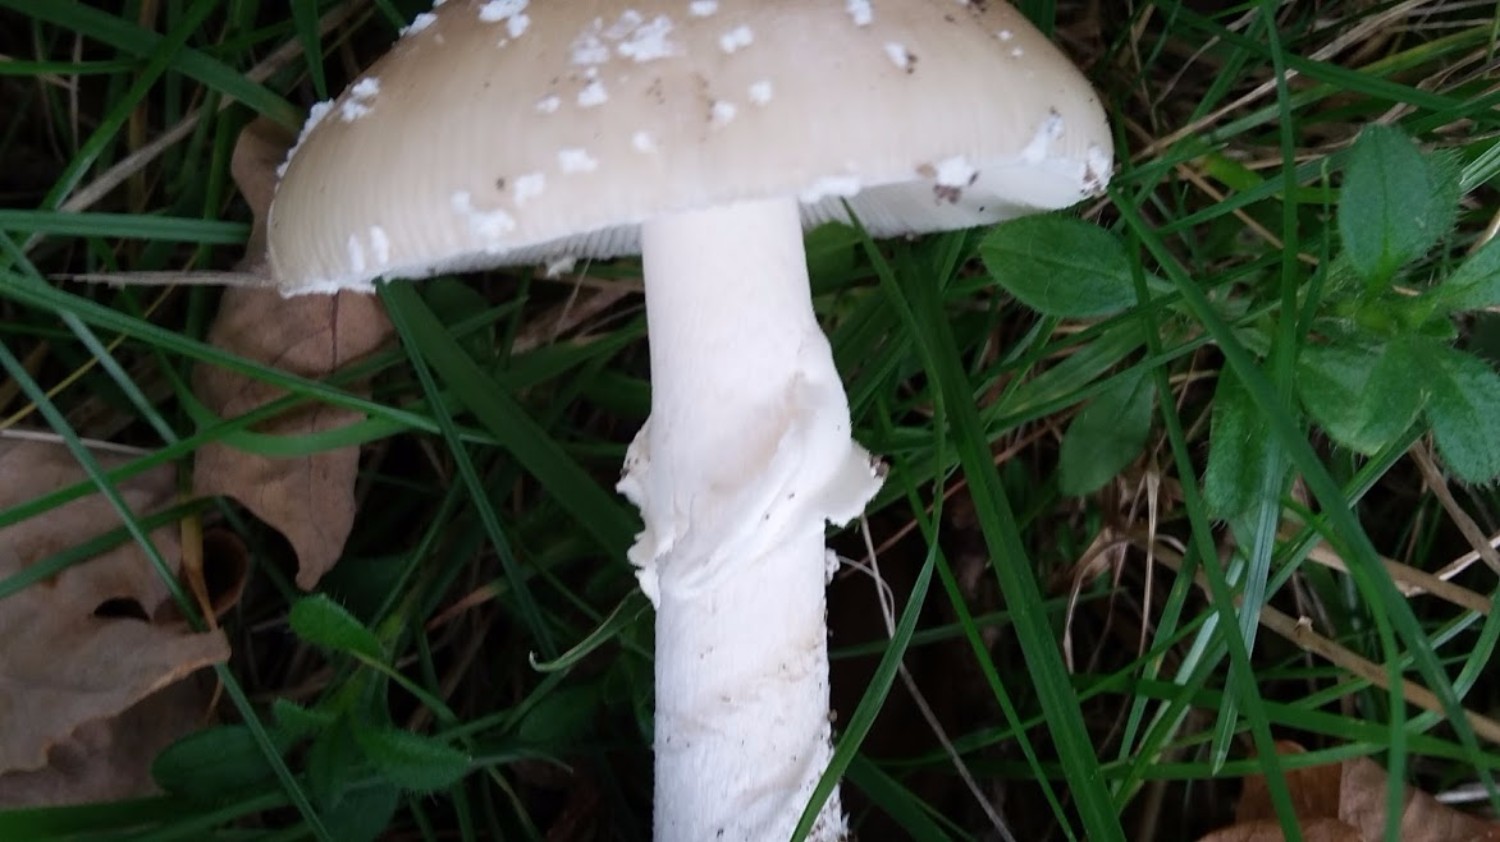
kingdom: Fungi
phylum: Basidiomycota
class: Agaricomycetes
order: Agaricales
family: Amanitaceae
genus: Amanita
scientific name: Amanita pantherina
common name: panter-fluesvamp
